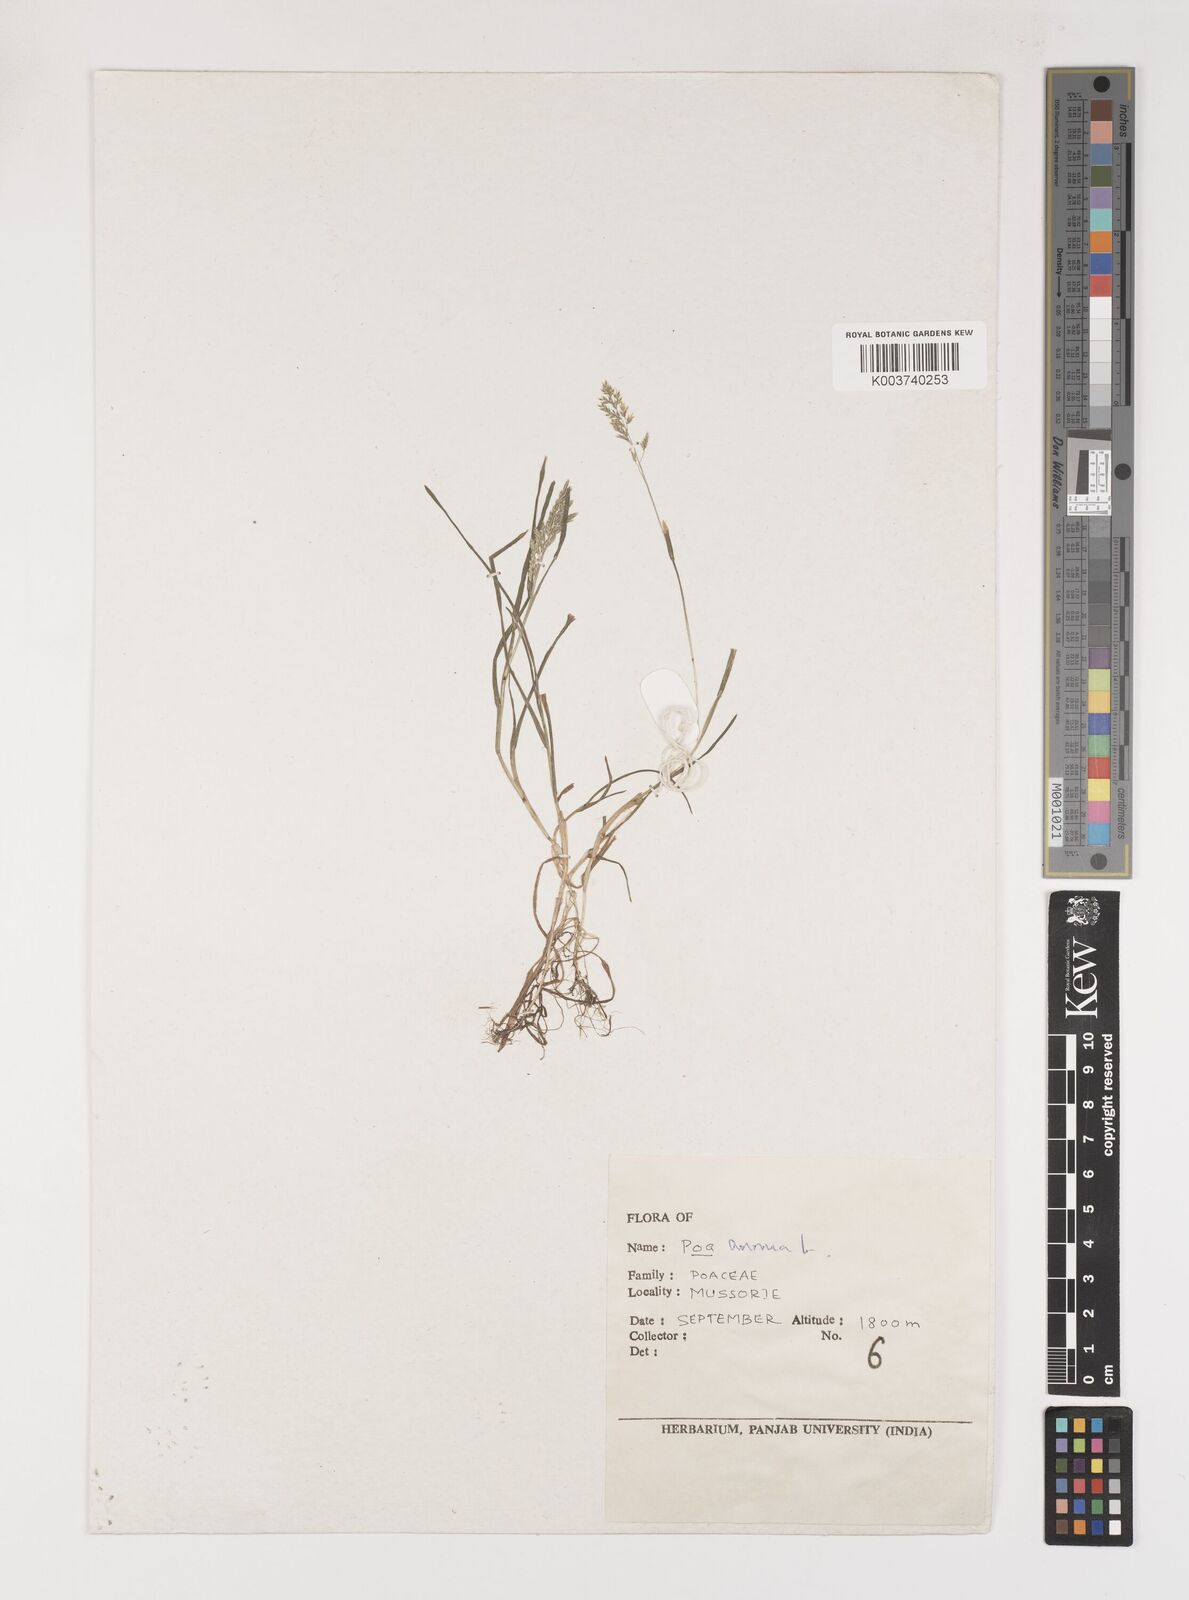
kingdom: Plantae
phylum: Tracheophyta
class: Liliopsida
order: Poales
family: Poaceae
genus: Poa
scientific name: Poa annua
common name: Annual bluegrass
